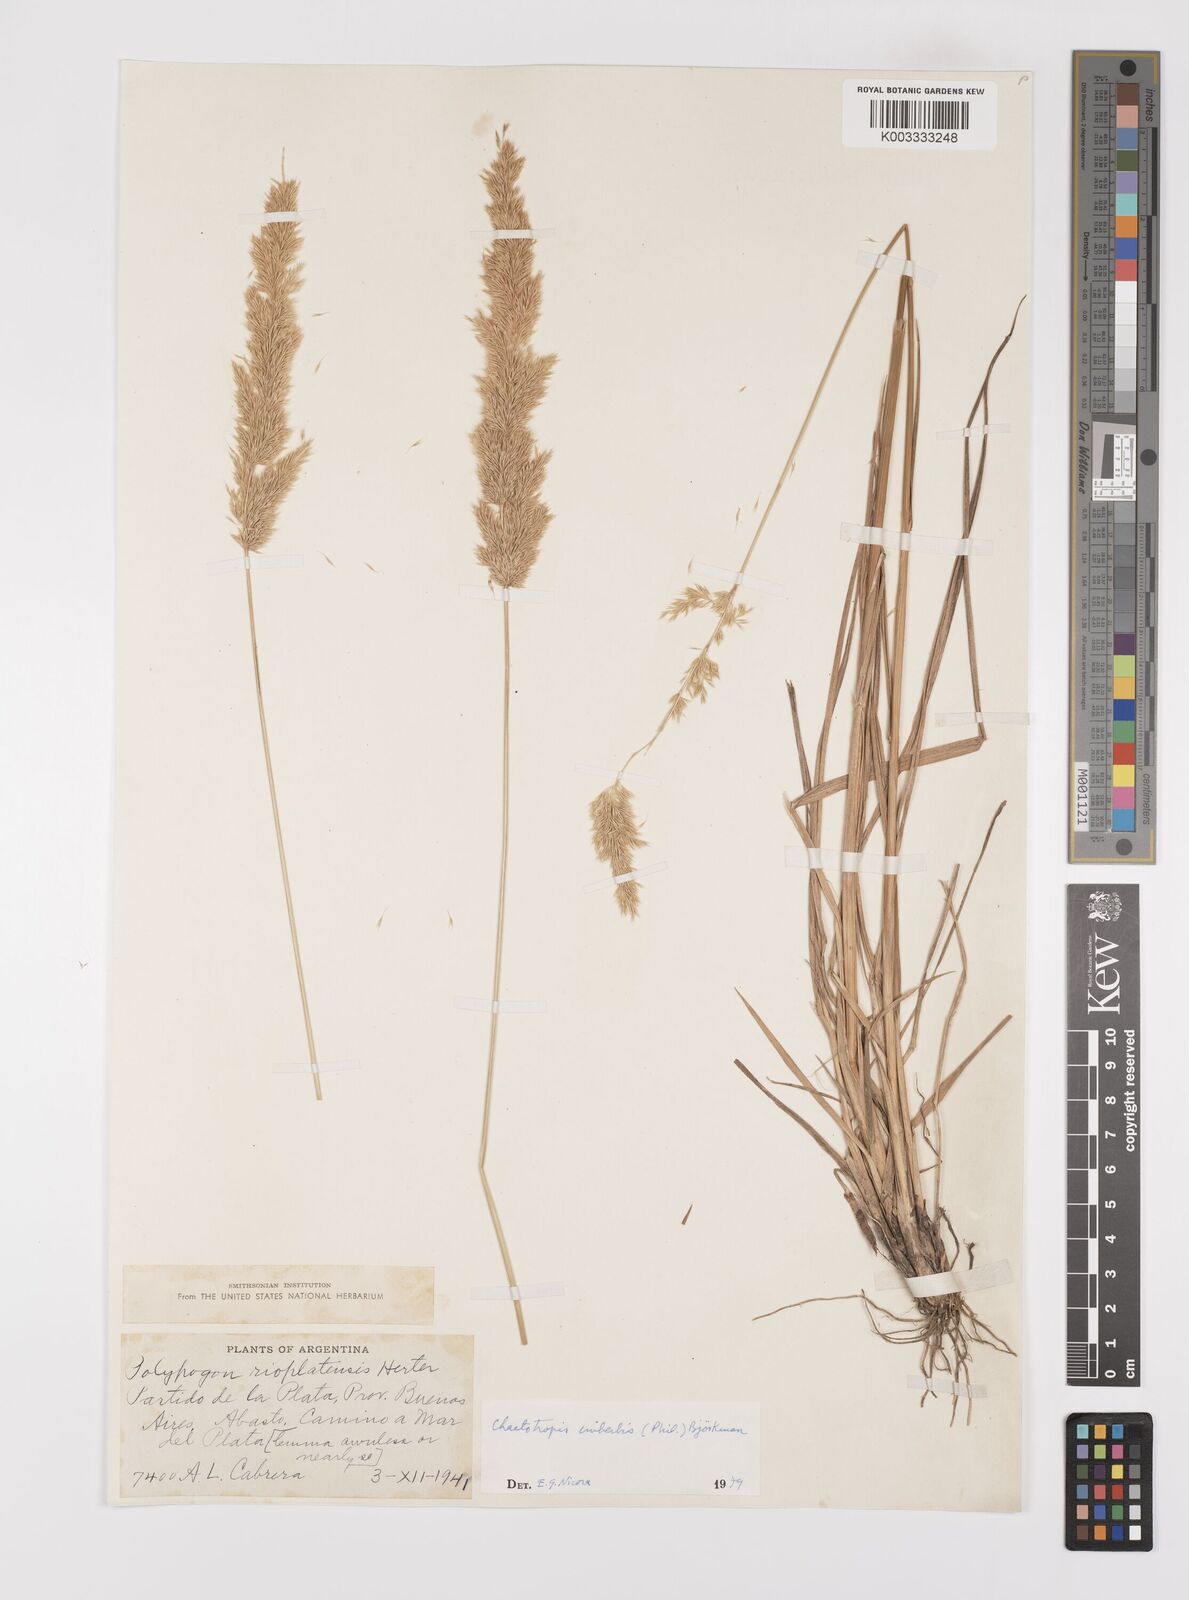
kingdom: Plantae
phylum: Tracheophyta
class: Liliopsida
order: Poales
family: Poaceae
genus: Polypogon
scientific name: Polypogon imberbis
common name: Beardless rabbitsfoot grass
